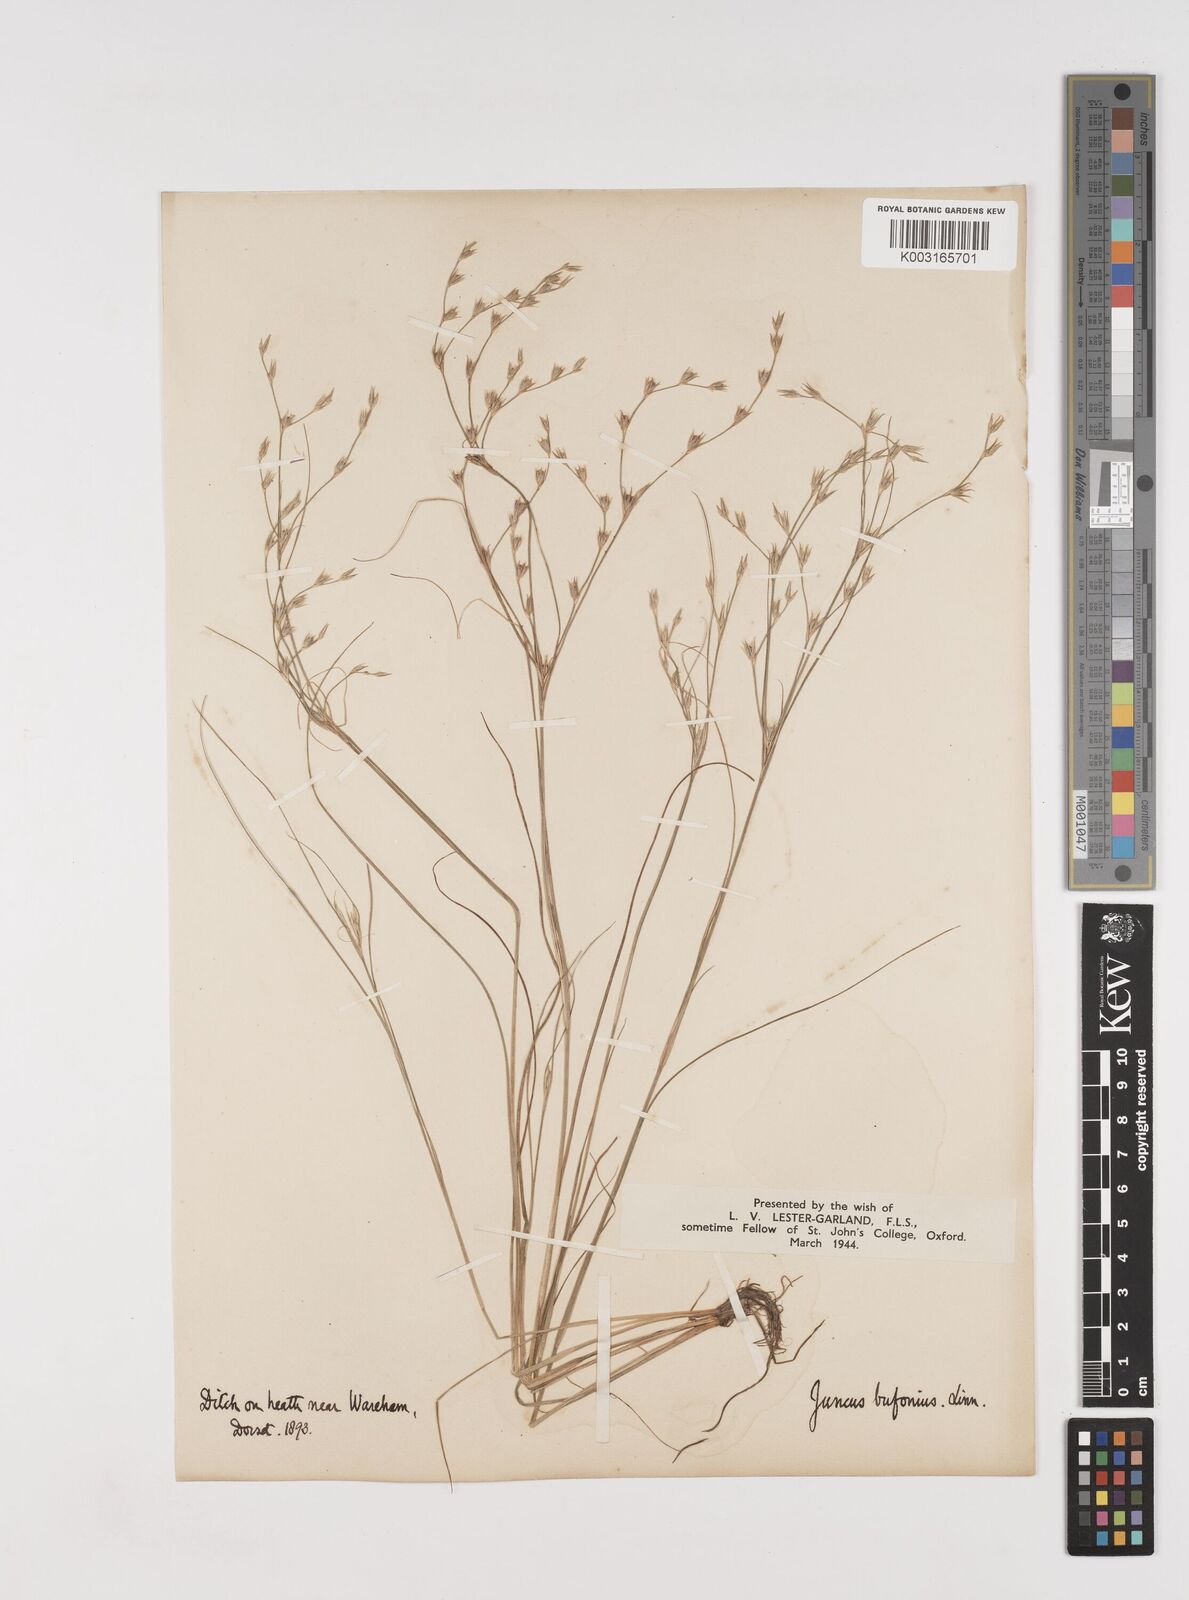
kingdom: Plantae
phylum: Tracheophyta
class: Liliopsida
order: Poales
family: Juncaceae
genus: Juncus
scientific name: Juncus bufonius
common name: Toad rush
